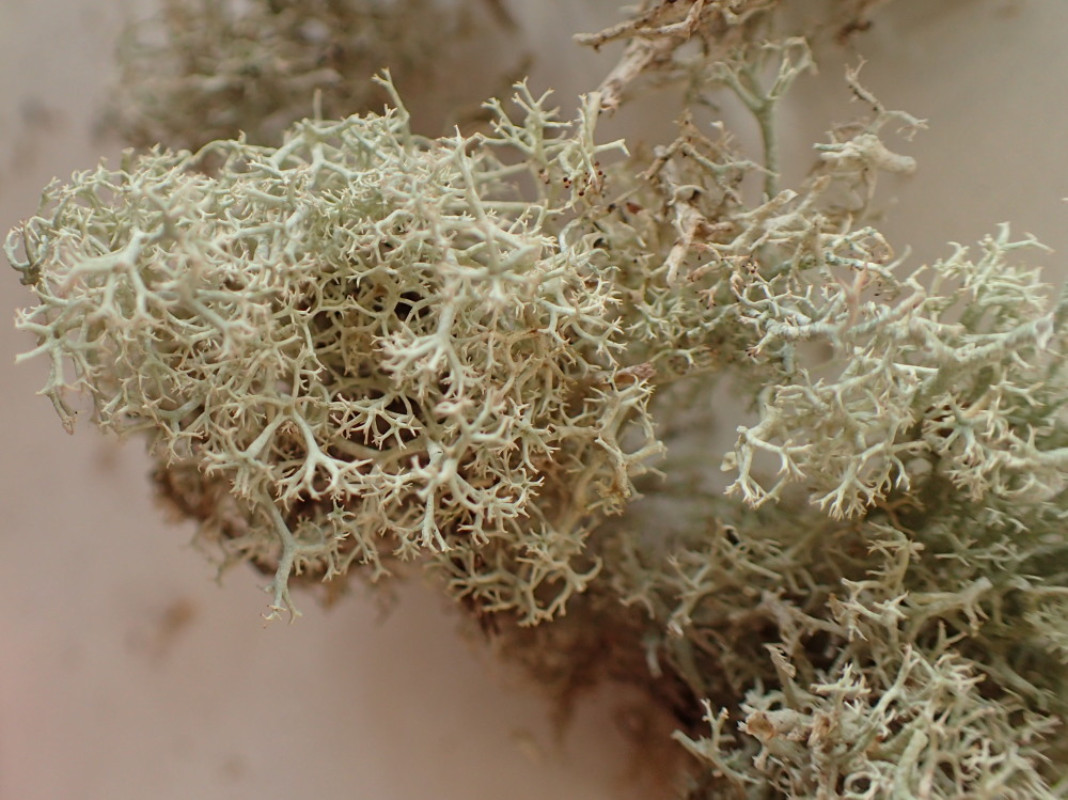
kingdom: Fungi
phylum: Ascomycota
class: Lecanoromycetes
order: Lecanorales
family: Cladoniaceae
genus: Cladonia
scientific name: Cladonia portentosa
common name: hede-rensdyrlav
